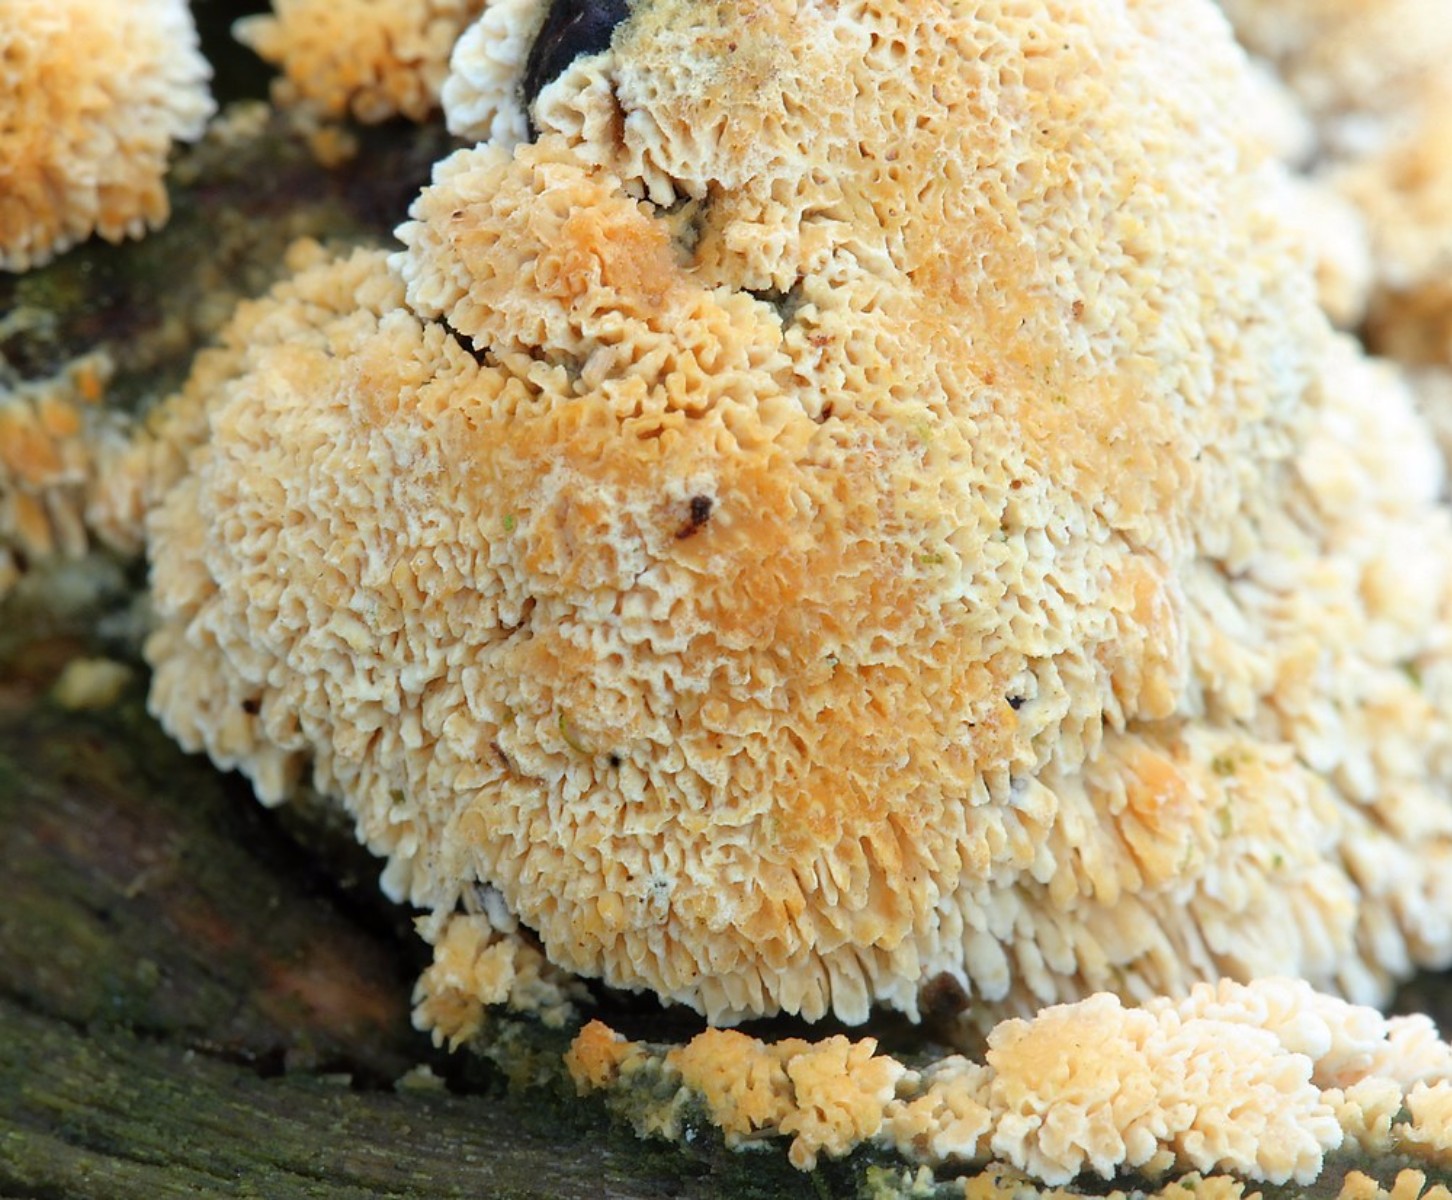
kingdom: Fungi
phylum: Basidiomycota
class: Agaricomycetes
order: Hymenochaetales
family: Schizoporaceae
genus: Schizopora
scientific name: Schizopora paradoxa
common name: hvid tandsvamp
